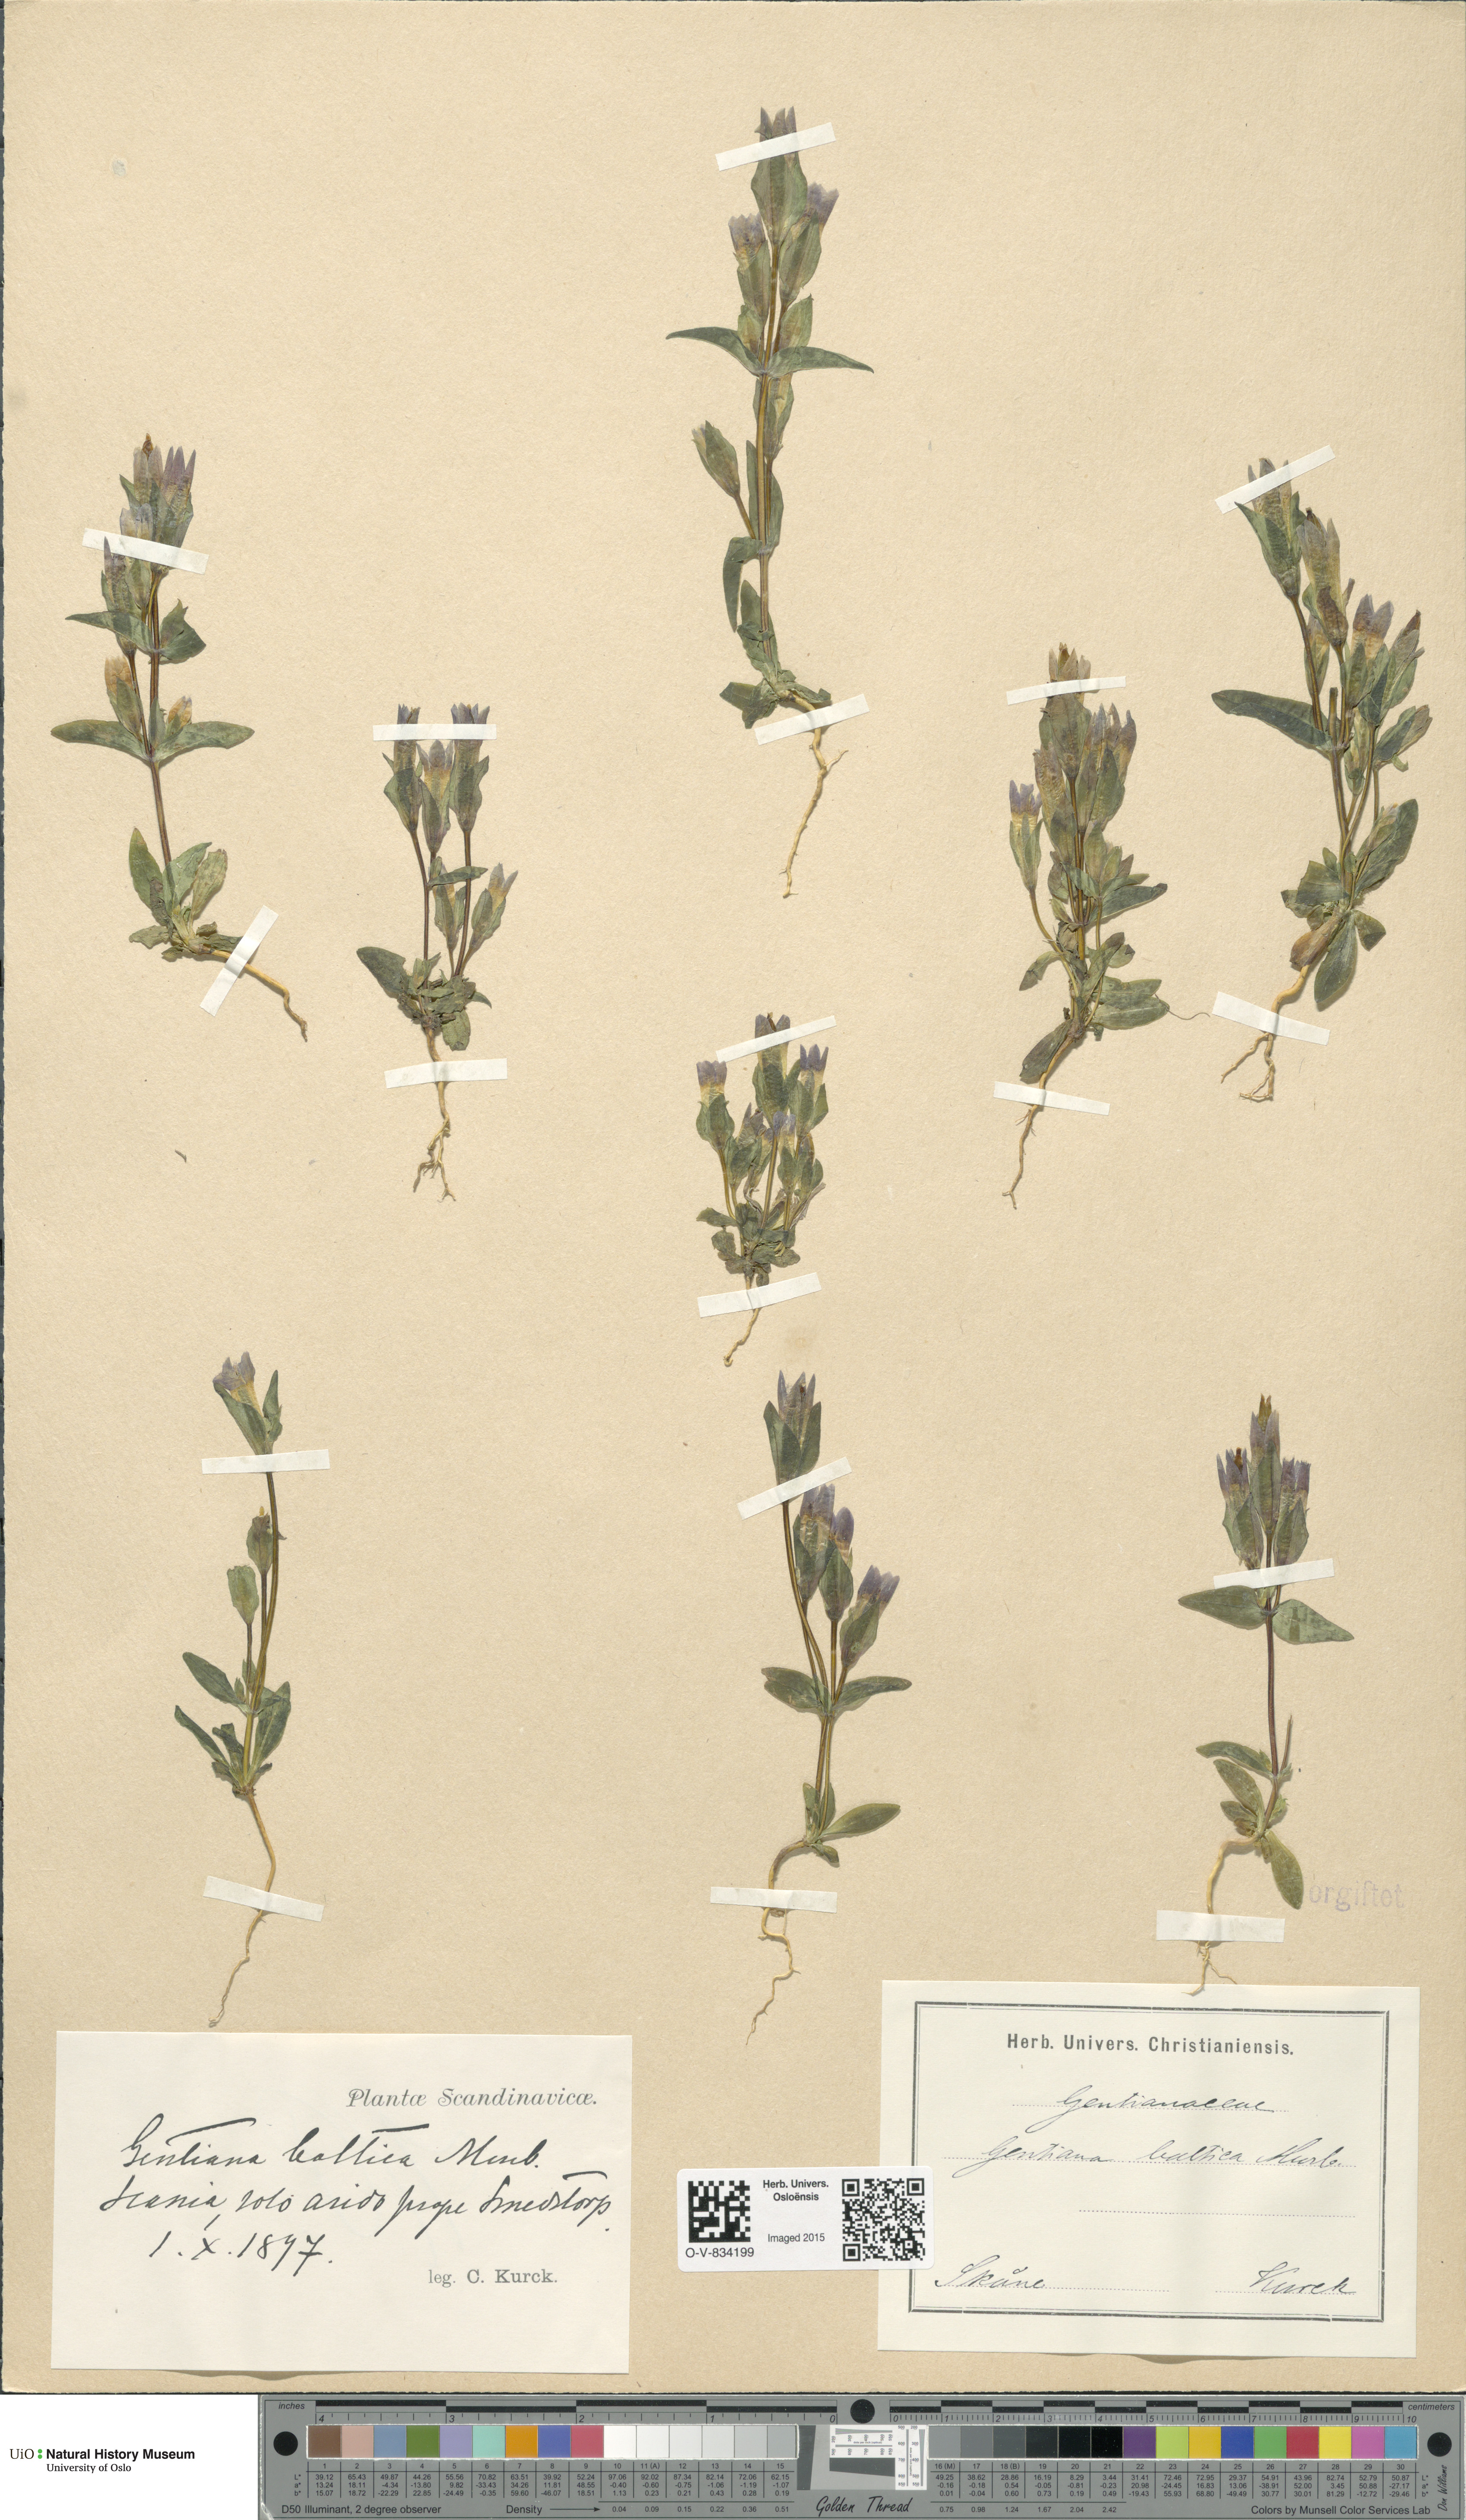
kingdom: Plantae
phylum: Tracheophyta
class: Magnoliopsida
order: Gentianales
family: Gentianaceae
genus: Gentianella
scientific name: Gentianella campestris
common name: Field gentian
